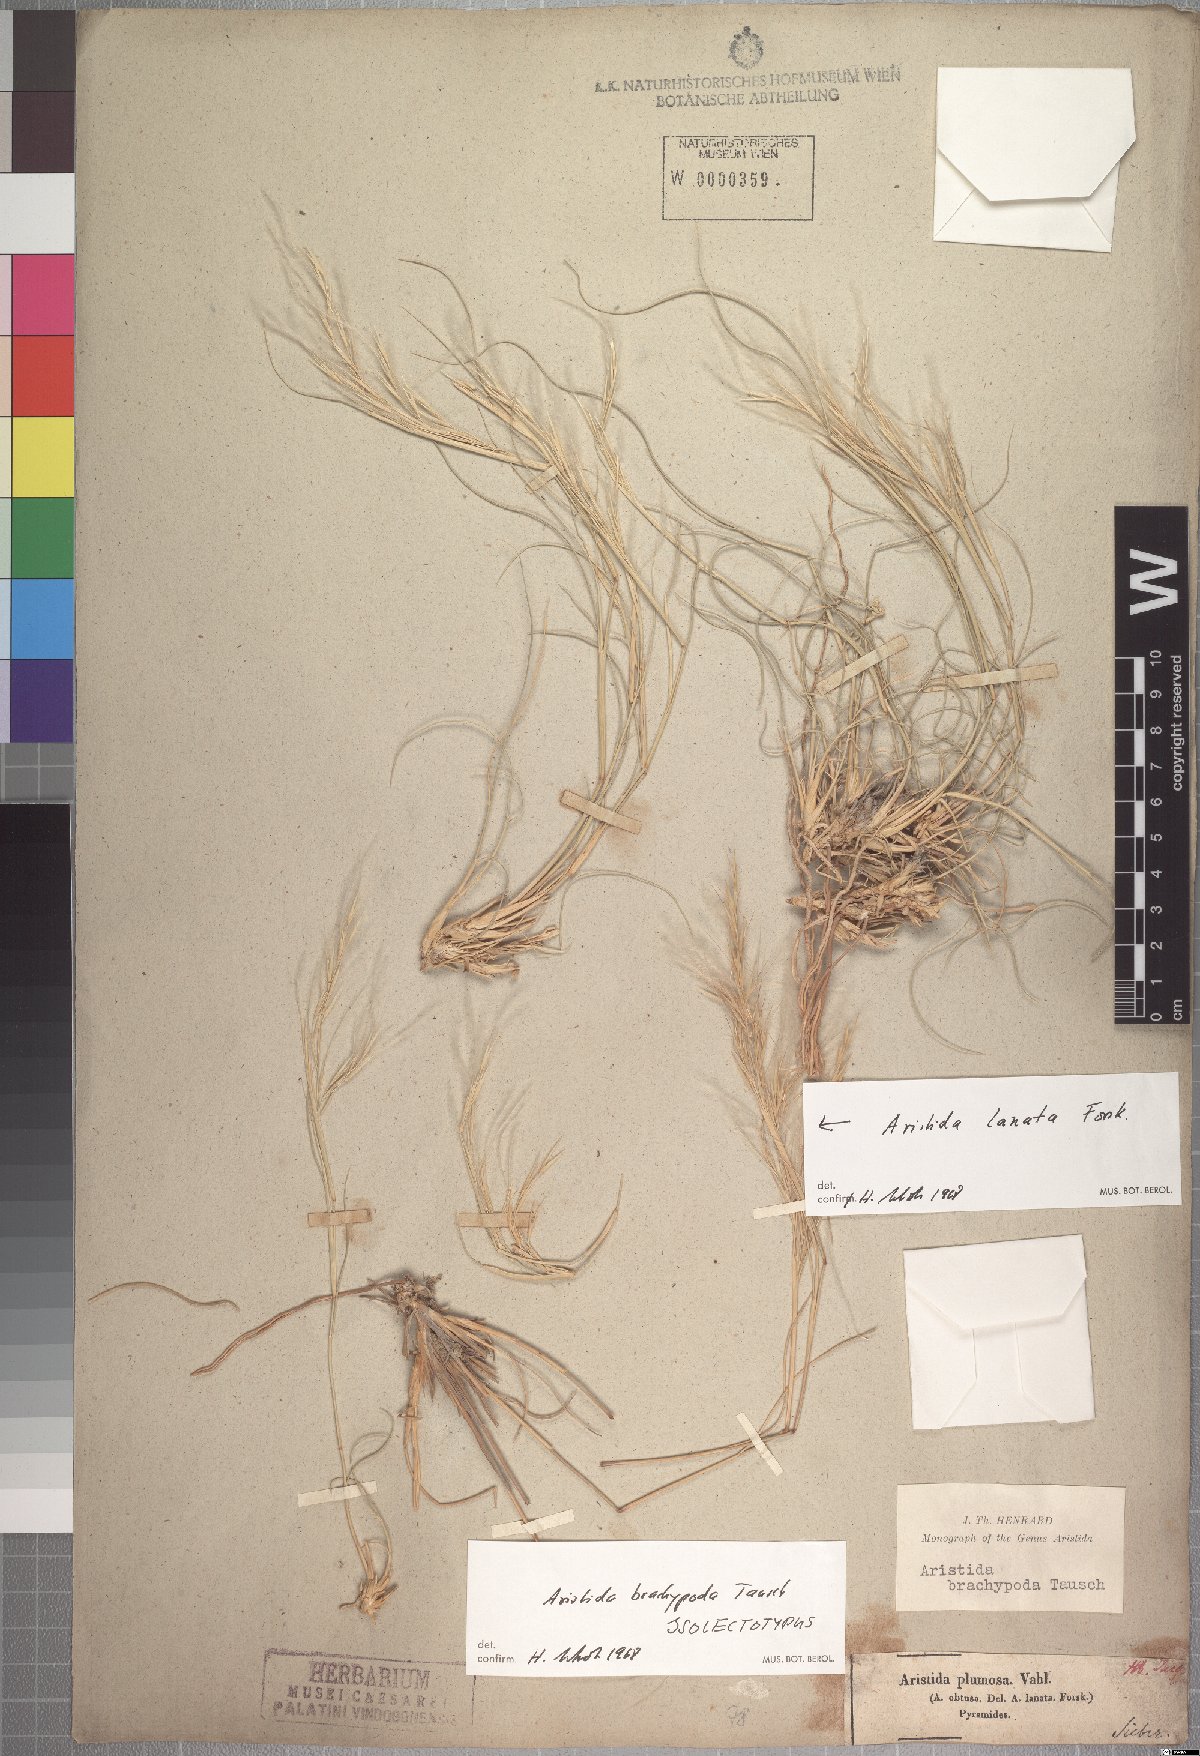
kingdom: Plantae
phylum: Tracheophyta
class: Liliopsida
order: Poales
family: Poaceae
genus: Stipagrostis
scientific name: Stipagrostis plumosa
